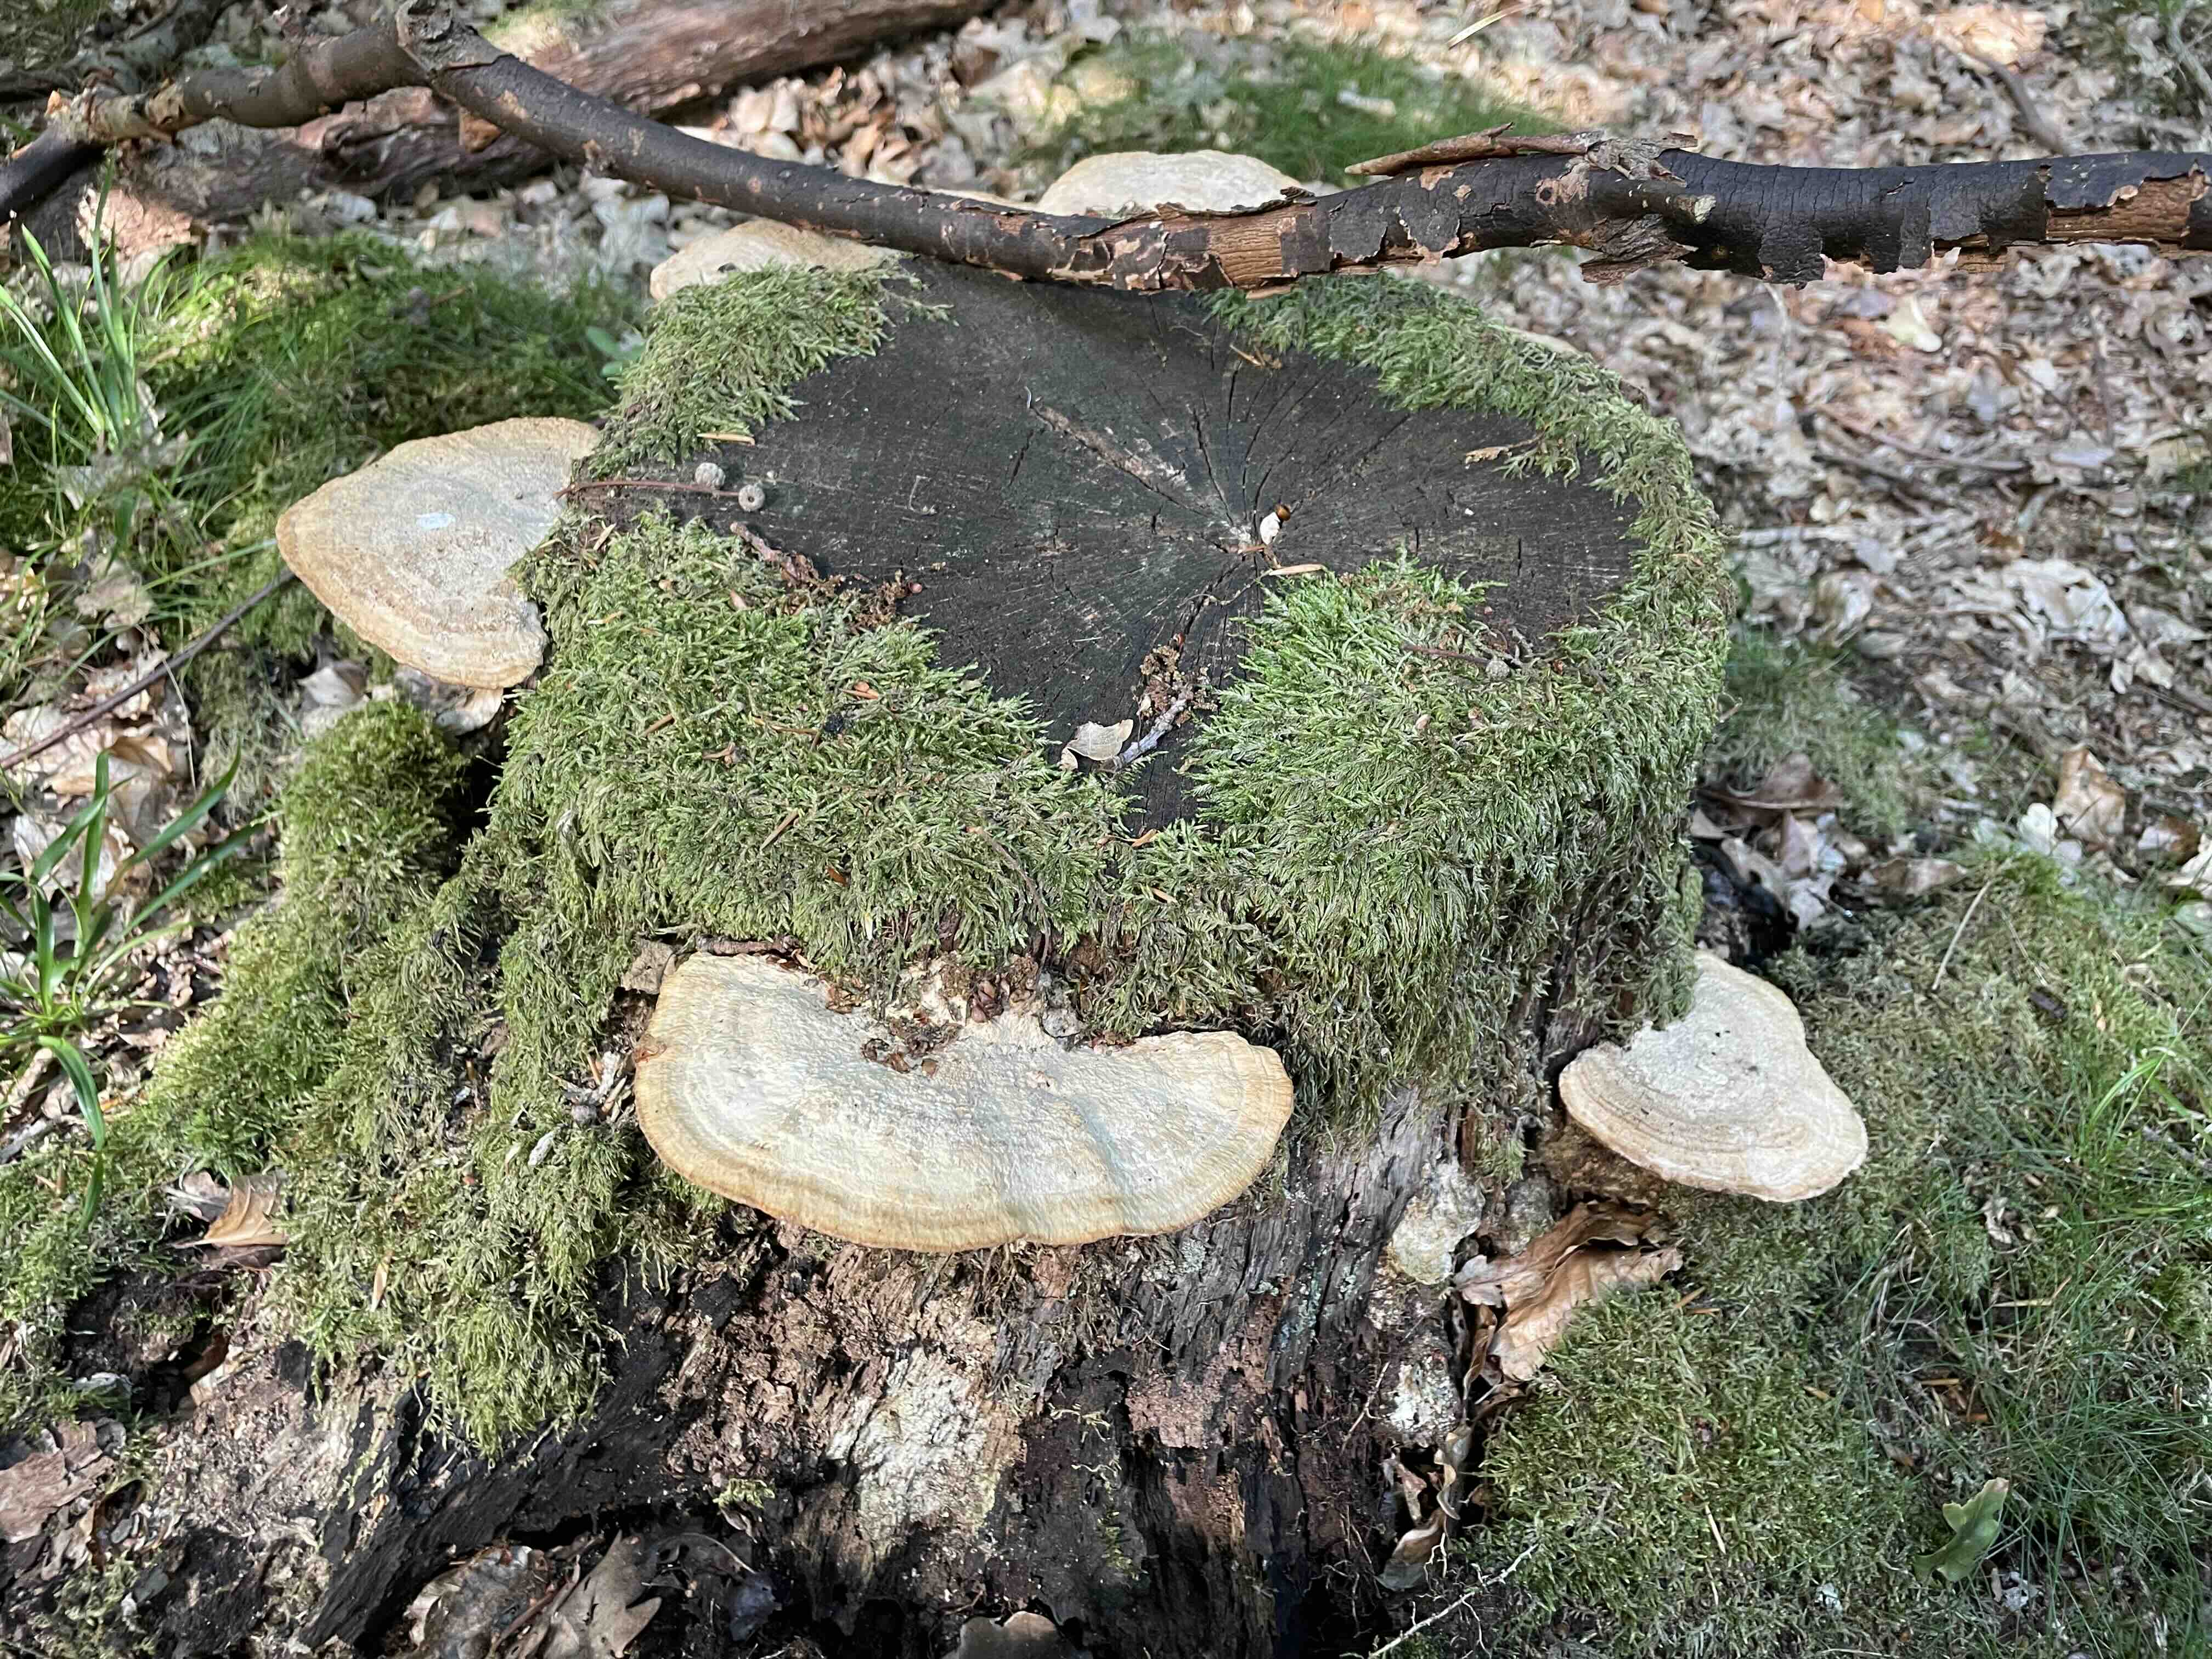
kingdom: Fungi
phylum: Basidiomycota
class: Agaricomycetes
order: Polyporales
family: Fomitopsidaceae
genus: Daedalea
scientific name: Daedalea quercina
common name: ege-labyrintsvamp
